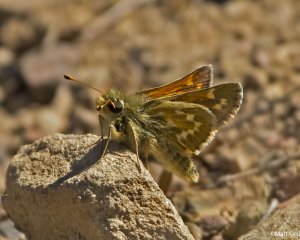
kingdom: Animalia
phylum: Arthropoda
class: Insecta
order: Lepidoptera
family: Hesperiidae
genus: Hesperia
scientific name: Hesperia comma
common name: Common Branded Skipper
